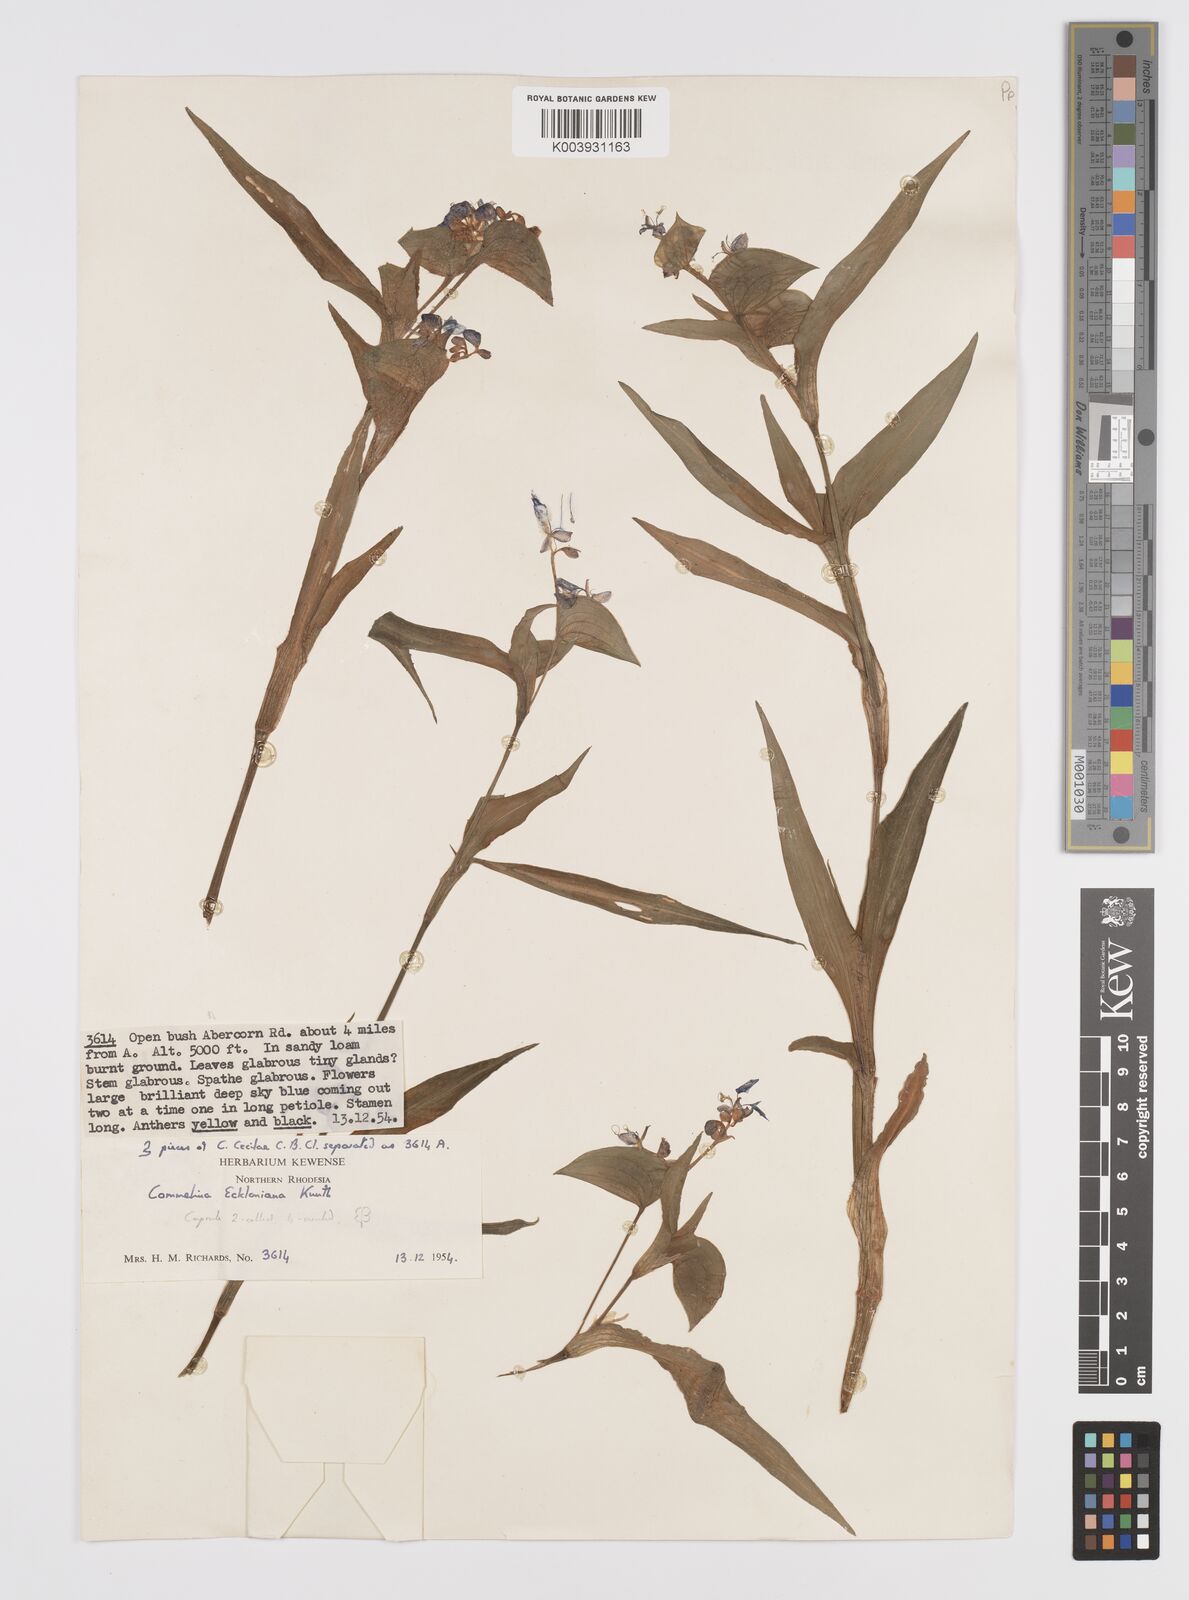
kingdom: Plantae
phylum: Tracheophyta
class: Liliopsida
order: Commelinales
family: Commelinaceae
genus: Commelina
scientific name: Commelina eckloniana
